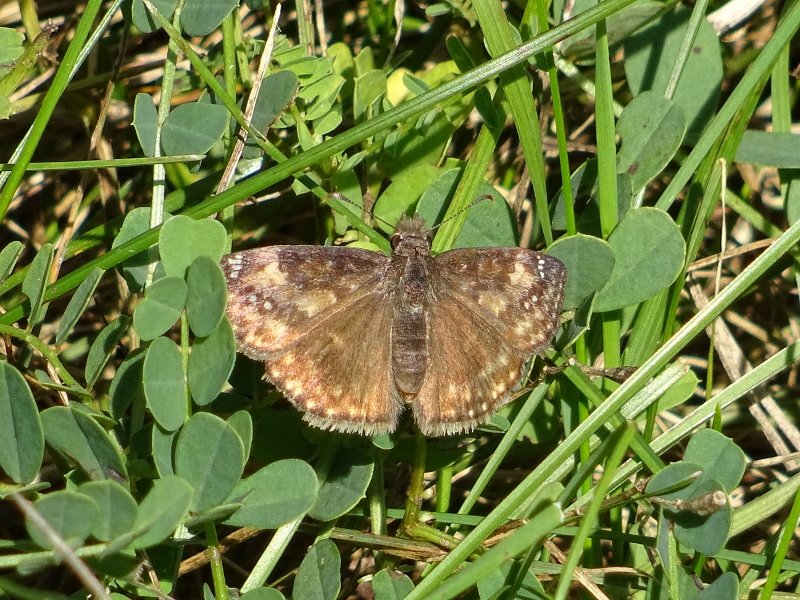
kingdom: Animalia
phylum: Arthropoda
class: Insecta
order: Lepidoptera
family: Hesperiidae
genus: Gesta
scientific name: Gesta
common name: Wild Indigo Duskywing
